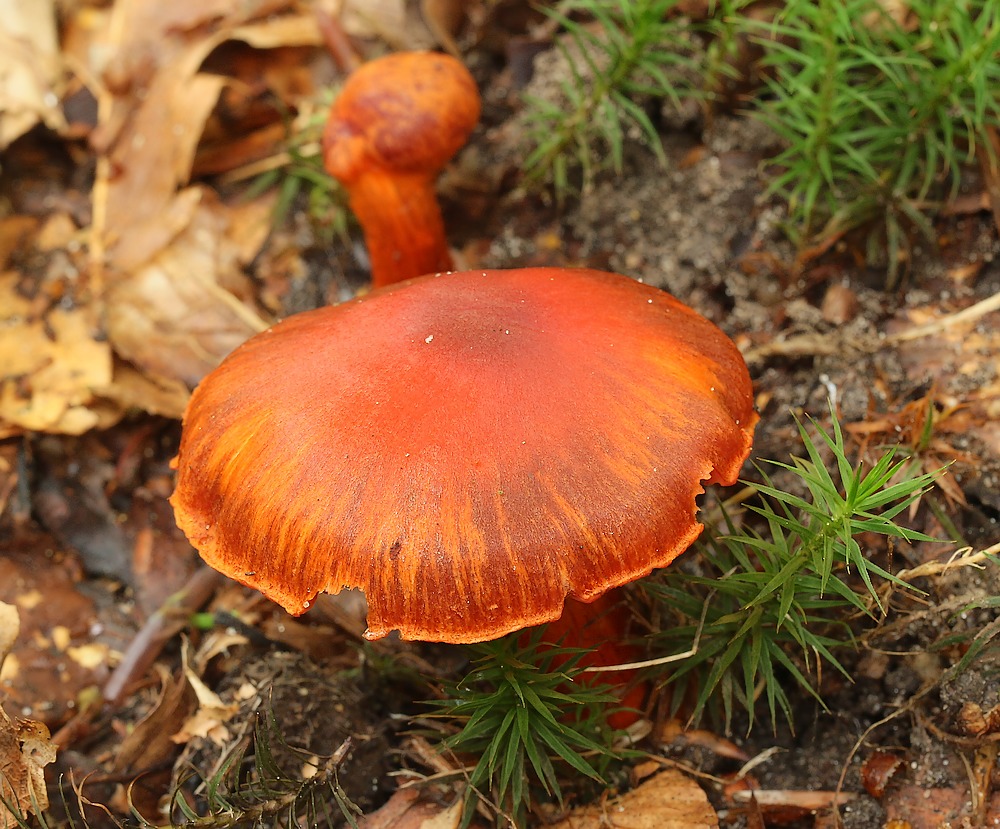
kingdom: Fungi
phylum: Basidiomycota
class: Agaricomycetes
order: Agaricales
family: Cortinariaceae
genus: Cortinarius
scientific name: Cortinarius cinnabarinus
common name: cinnober-slørhat
